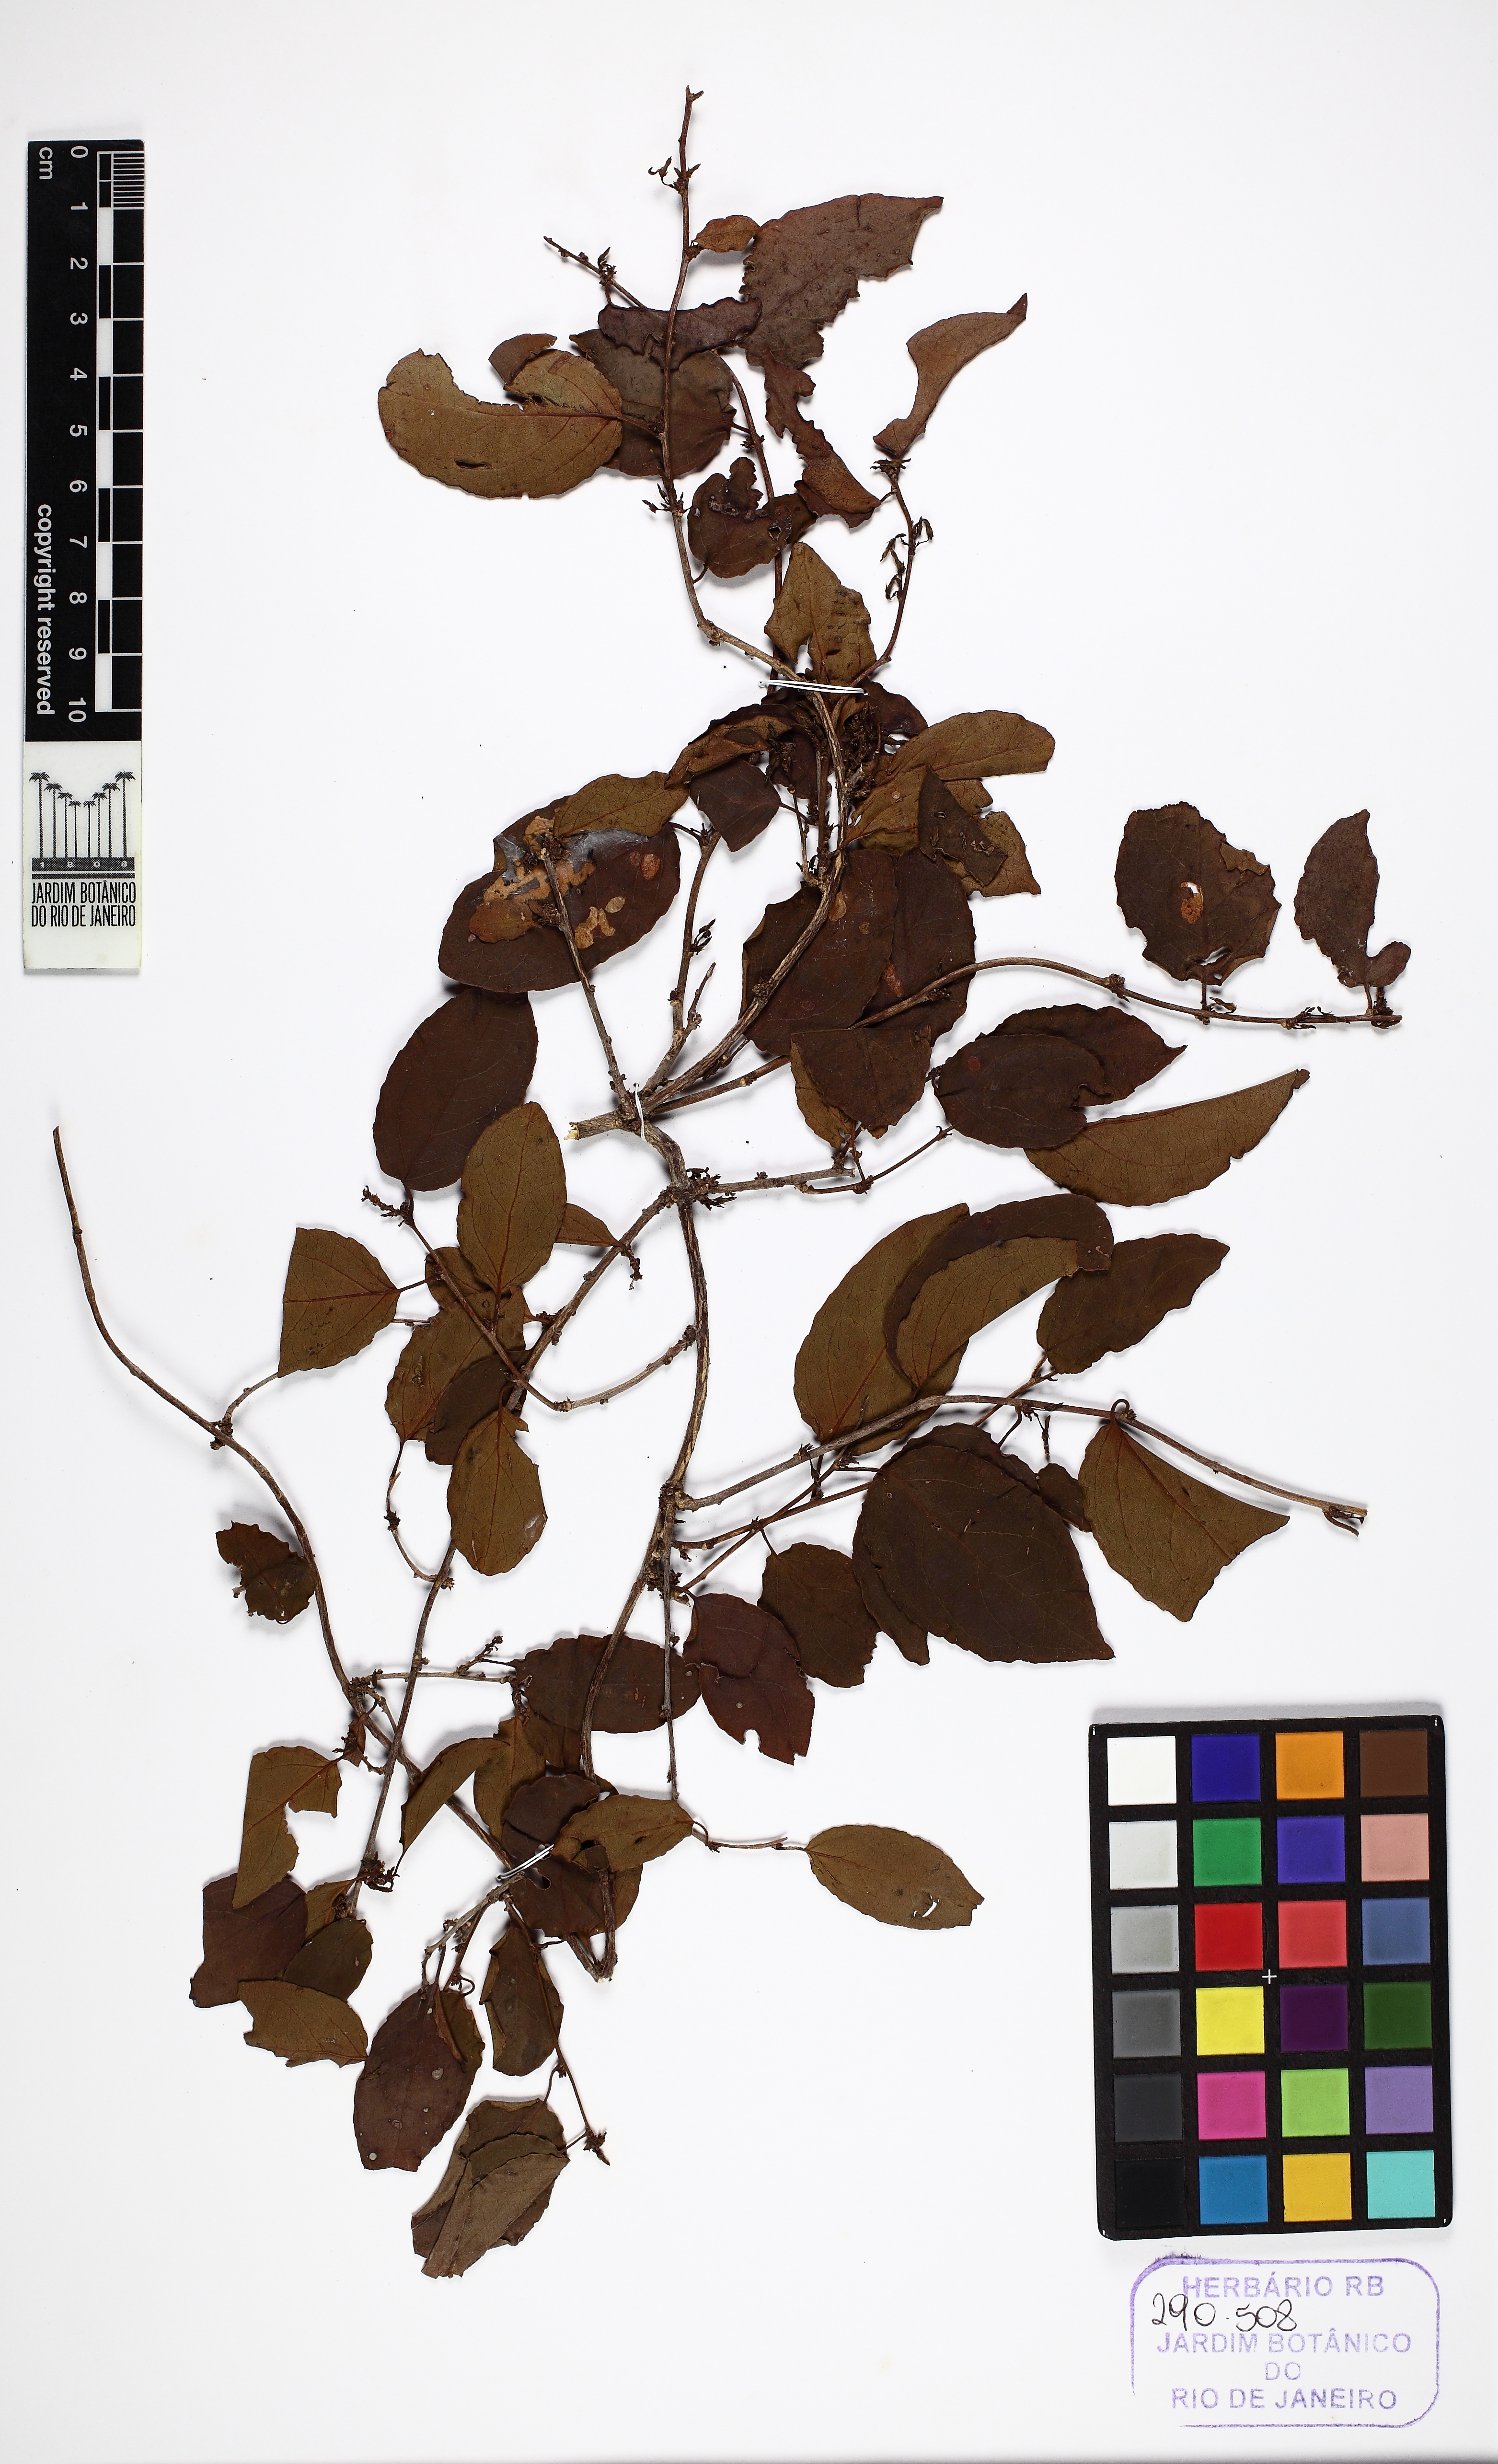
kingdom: Plantae
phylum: Tracheophyta
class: Magnoliopsida
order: Malpighiales
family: Violaceae
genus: Anchietea
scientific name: Anchietea pyrifolia
